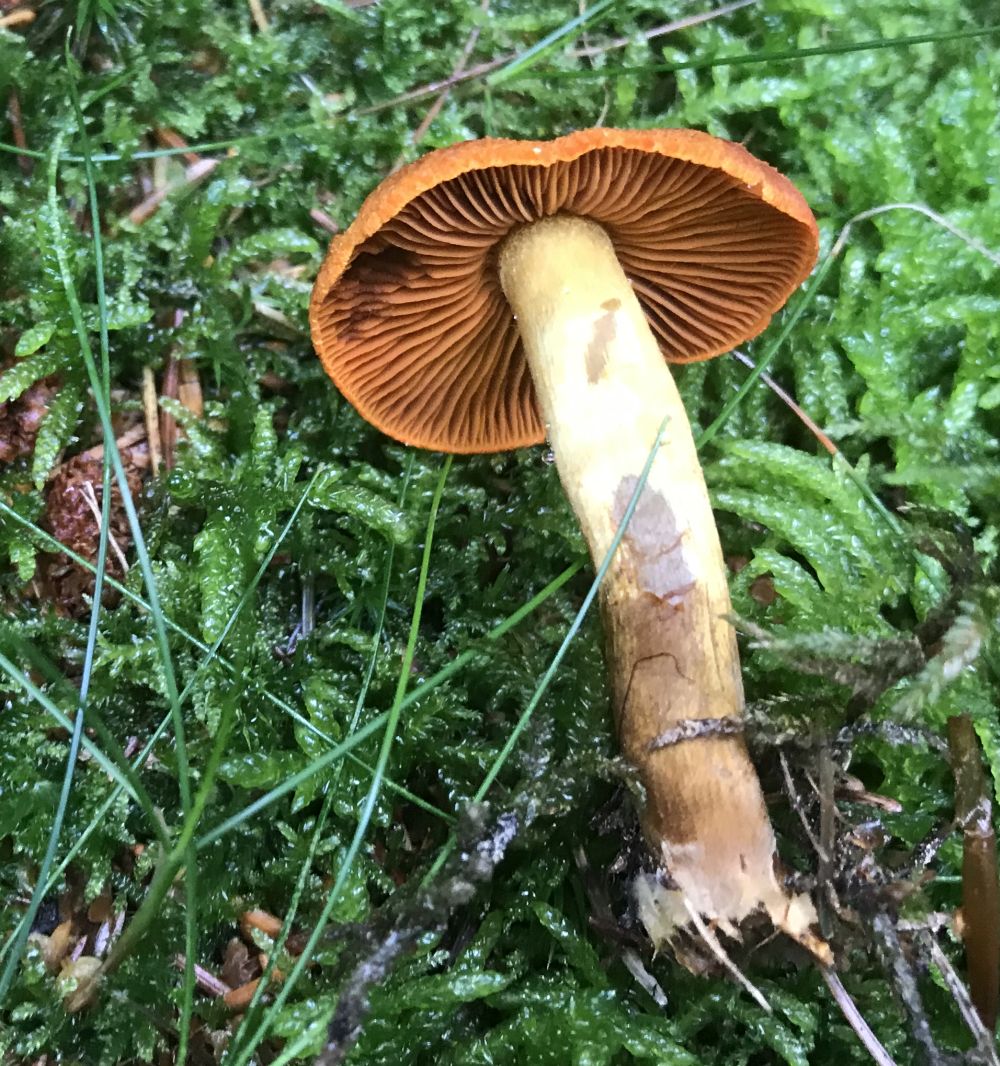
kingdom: Fungi
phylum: Basidiomycota
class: Agaricomycetes
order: Agaricales
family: Cortinariaceae
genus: Cortinarius
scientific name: Cortinarius malicorius
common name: grønkødet slørhat
